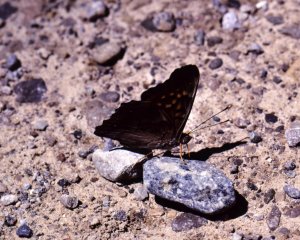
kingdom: Animalia
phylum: Arthropoda
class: Insecta
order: Lepidoptera
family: Nymphalidae
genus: Asterocampa
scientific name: Asterocampa clyton
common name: Tawny Emperor
